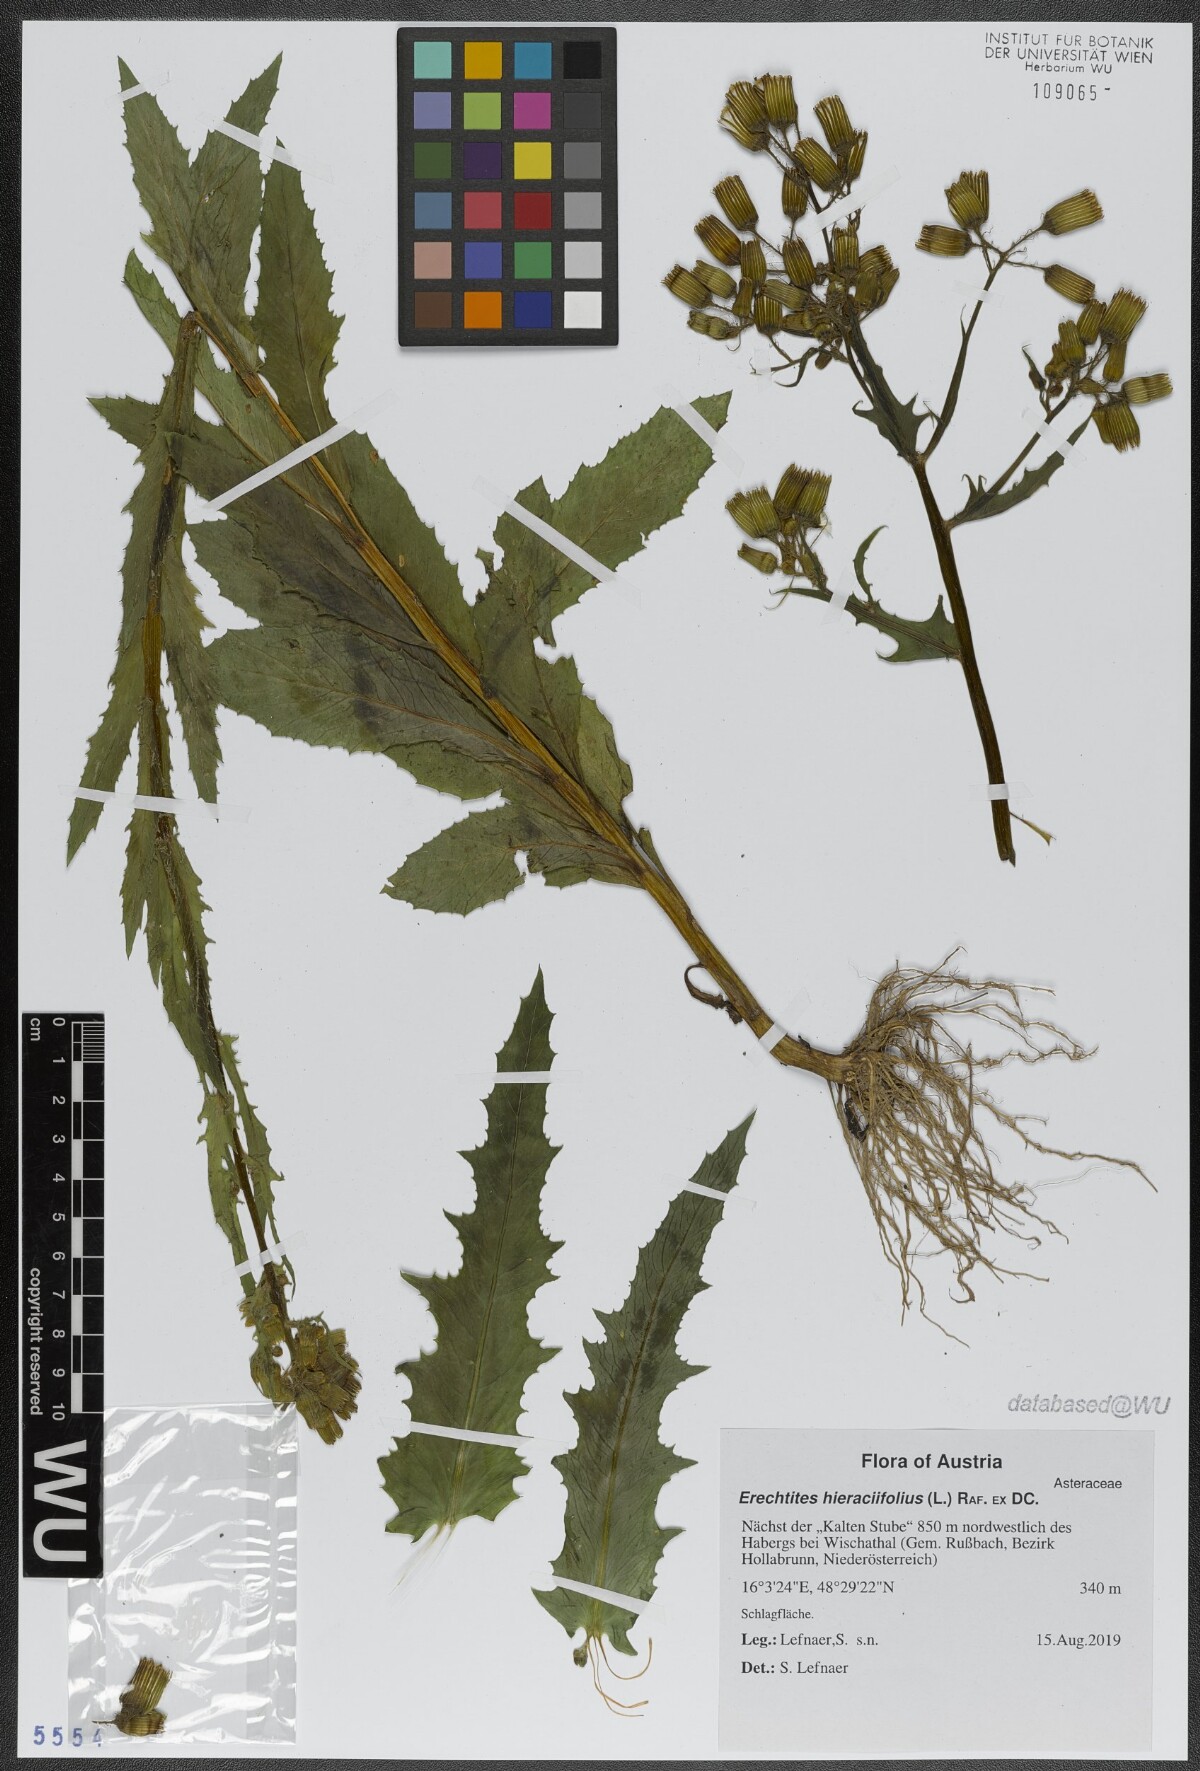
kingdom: Plantae
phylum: Tracheophyta
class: Magnoliopsida
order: Asterales
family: Asteraceae
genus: Erechtites
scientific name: Erechtites hieraciifolius
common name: American burnweed
